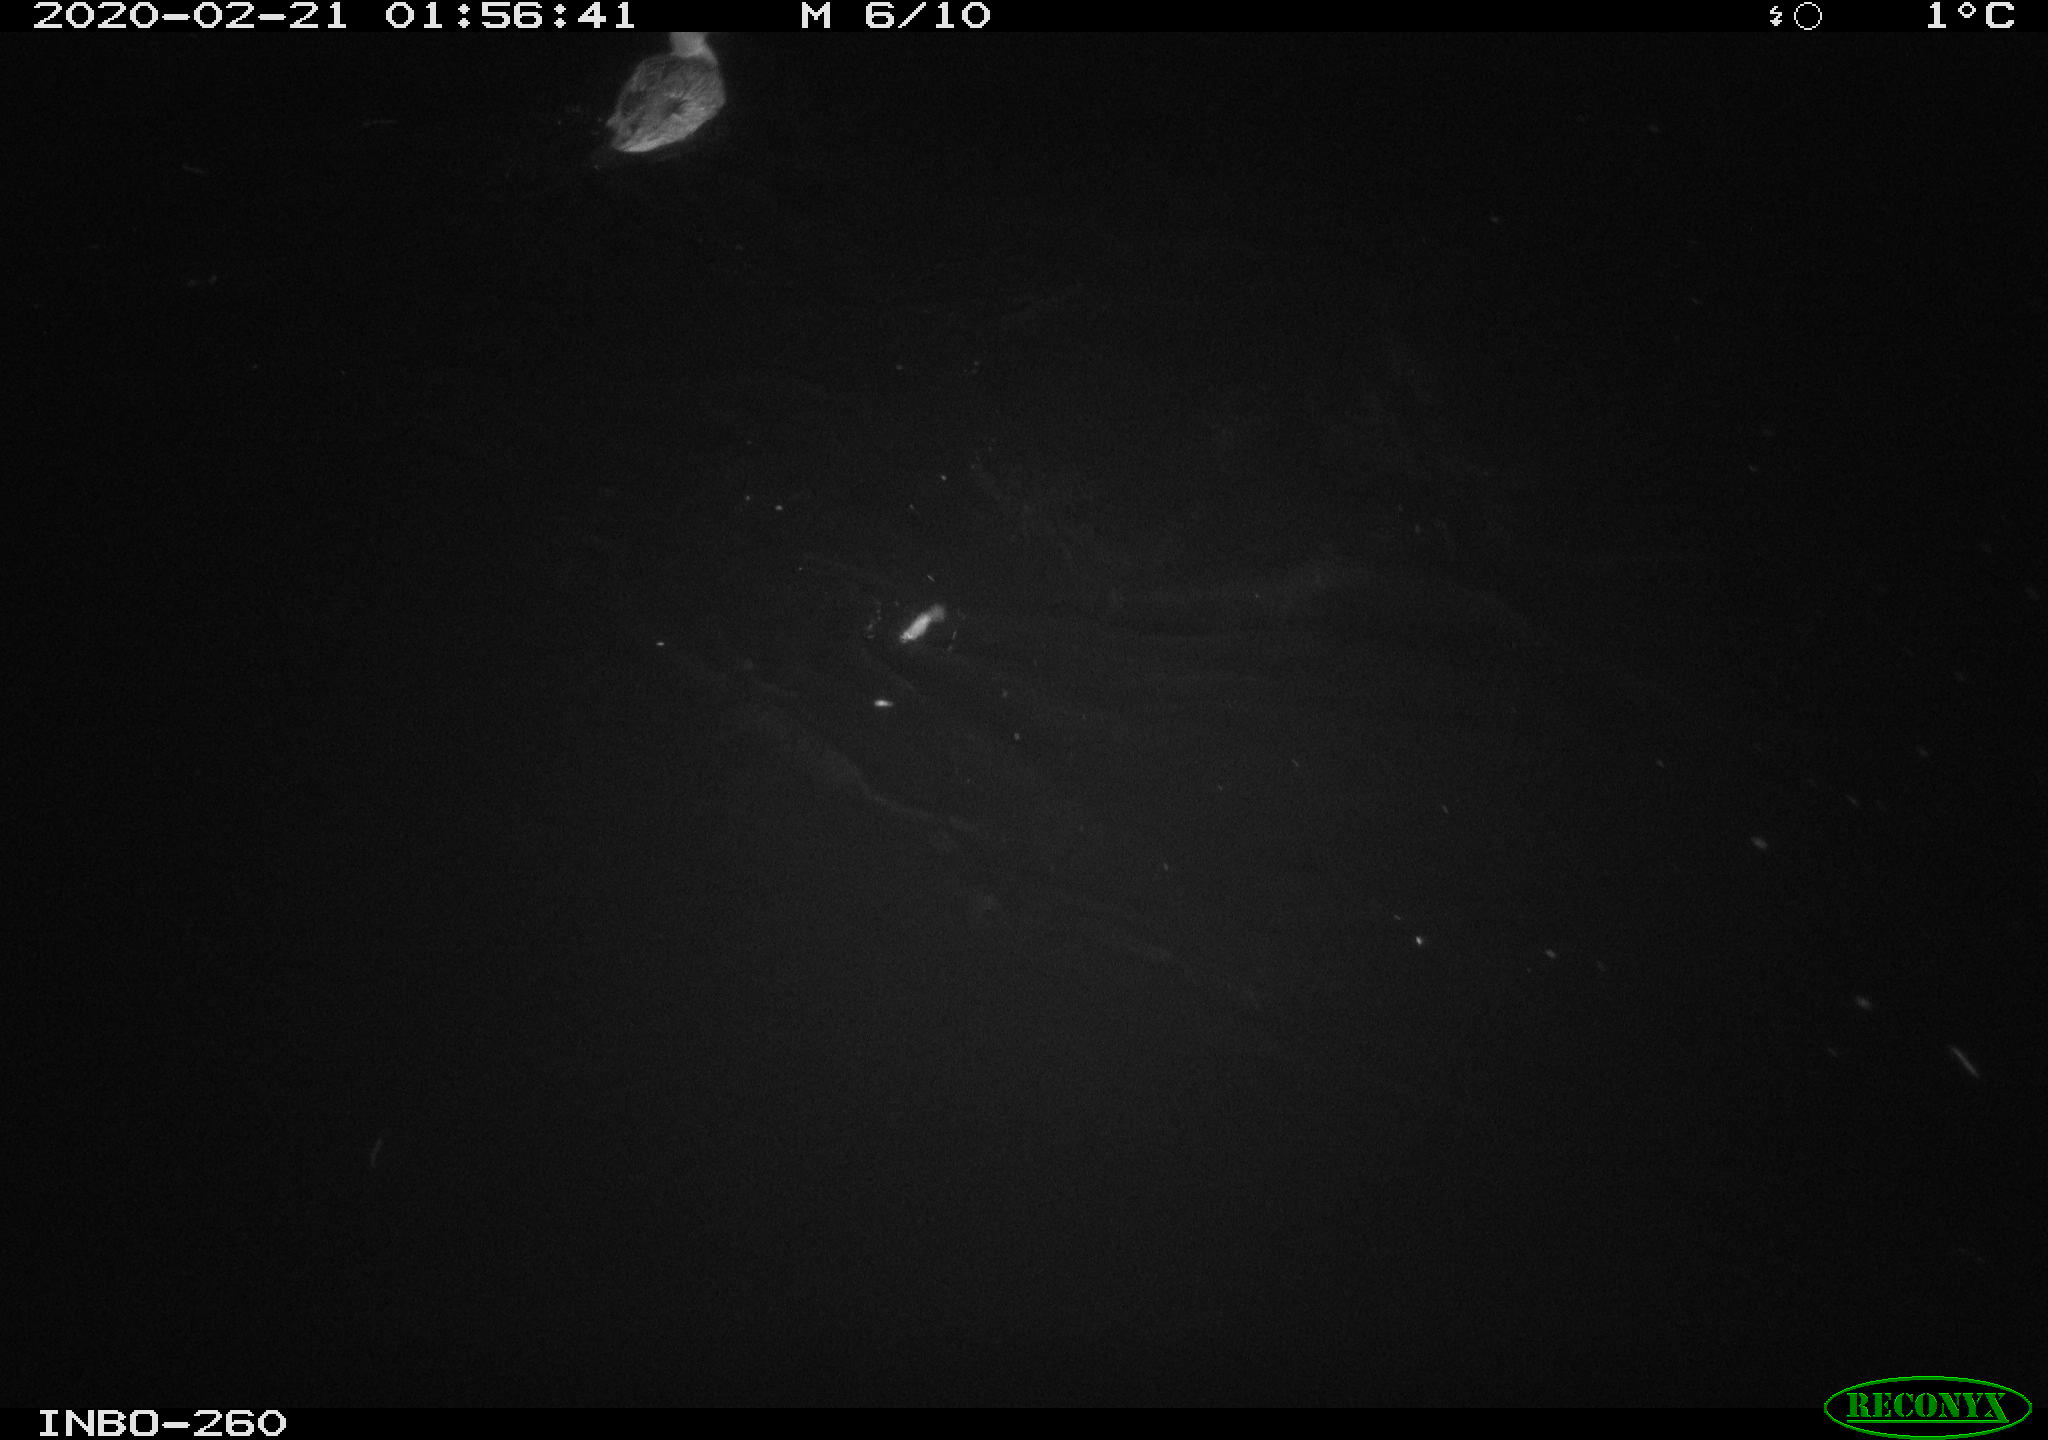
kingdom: Animalia
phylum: Chordata
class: Aves
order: Anseriformes
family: Anatidae
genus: Anas
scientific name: Anas platyrhynchos
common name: Mallard
